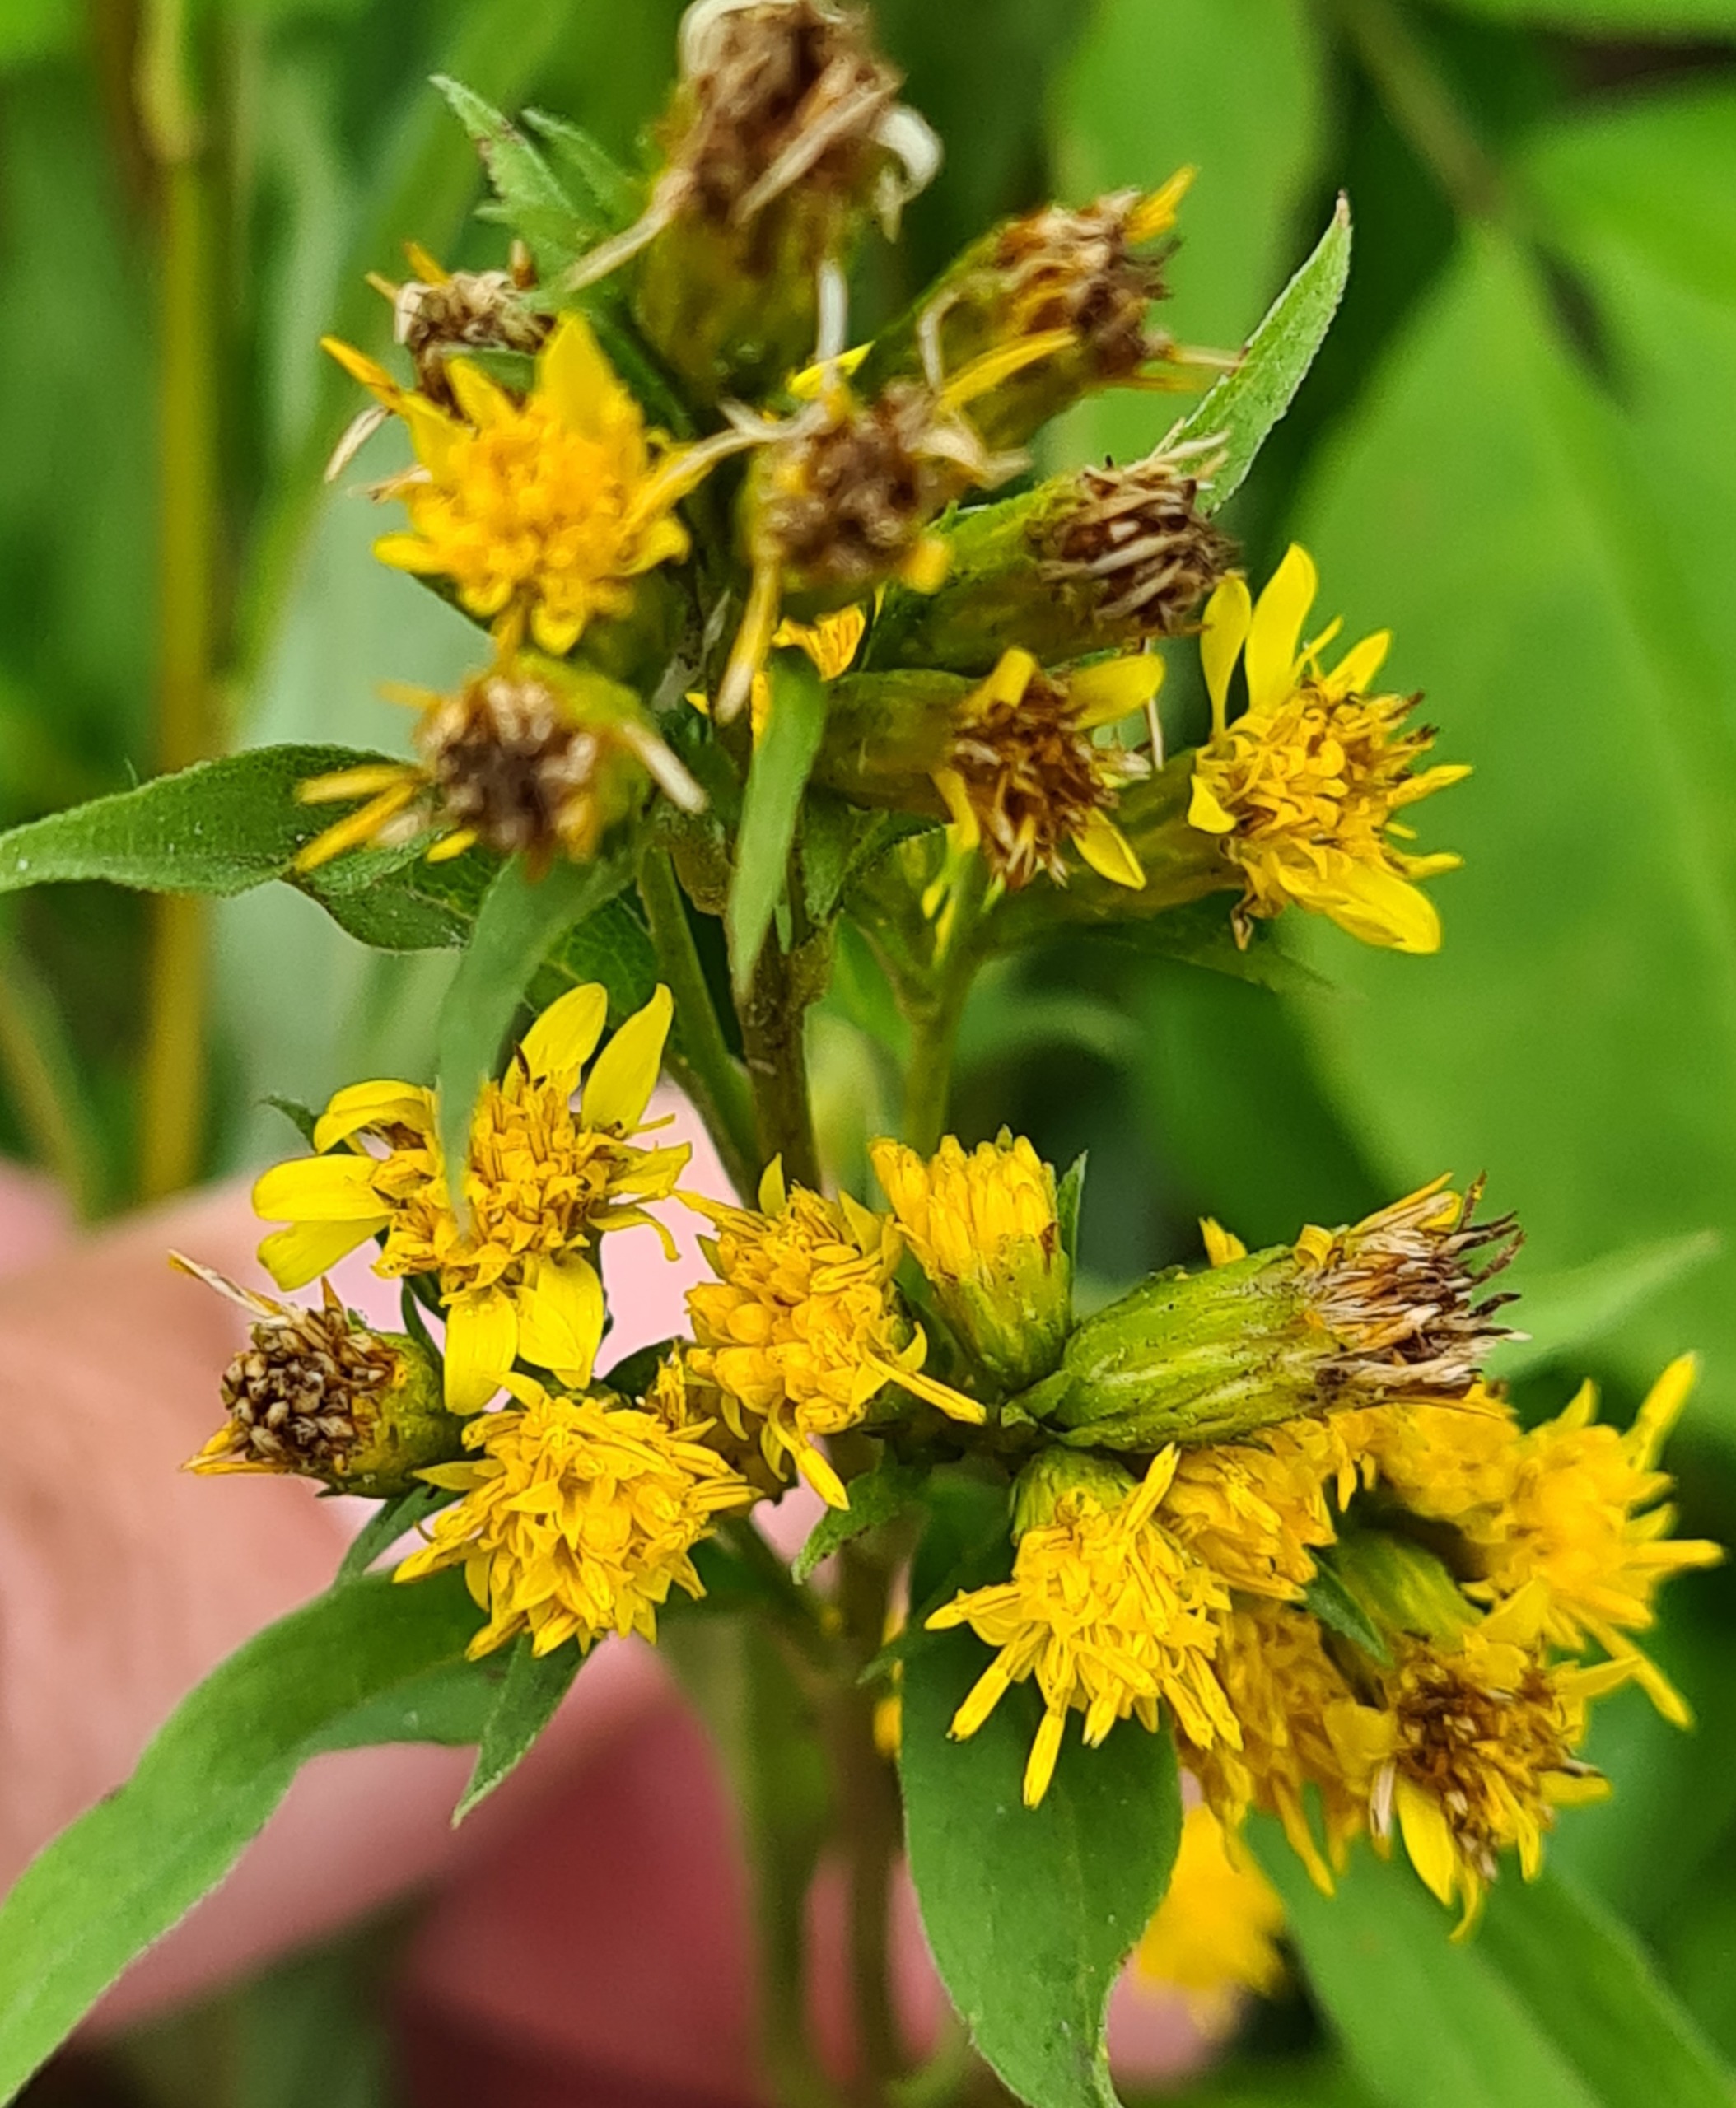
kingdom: Plantae
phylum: Tracheophyta
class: Magnoliopsida
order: Asterales
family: Asteraceae
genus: Solidago
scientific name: Solidago virgaurea
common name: Almindelig gyldenris
